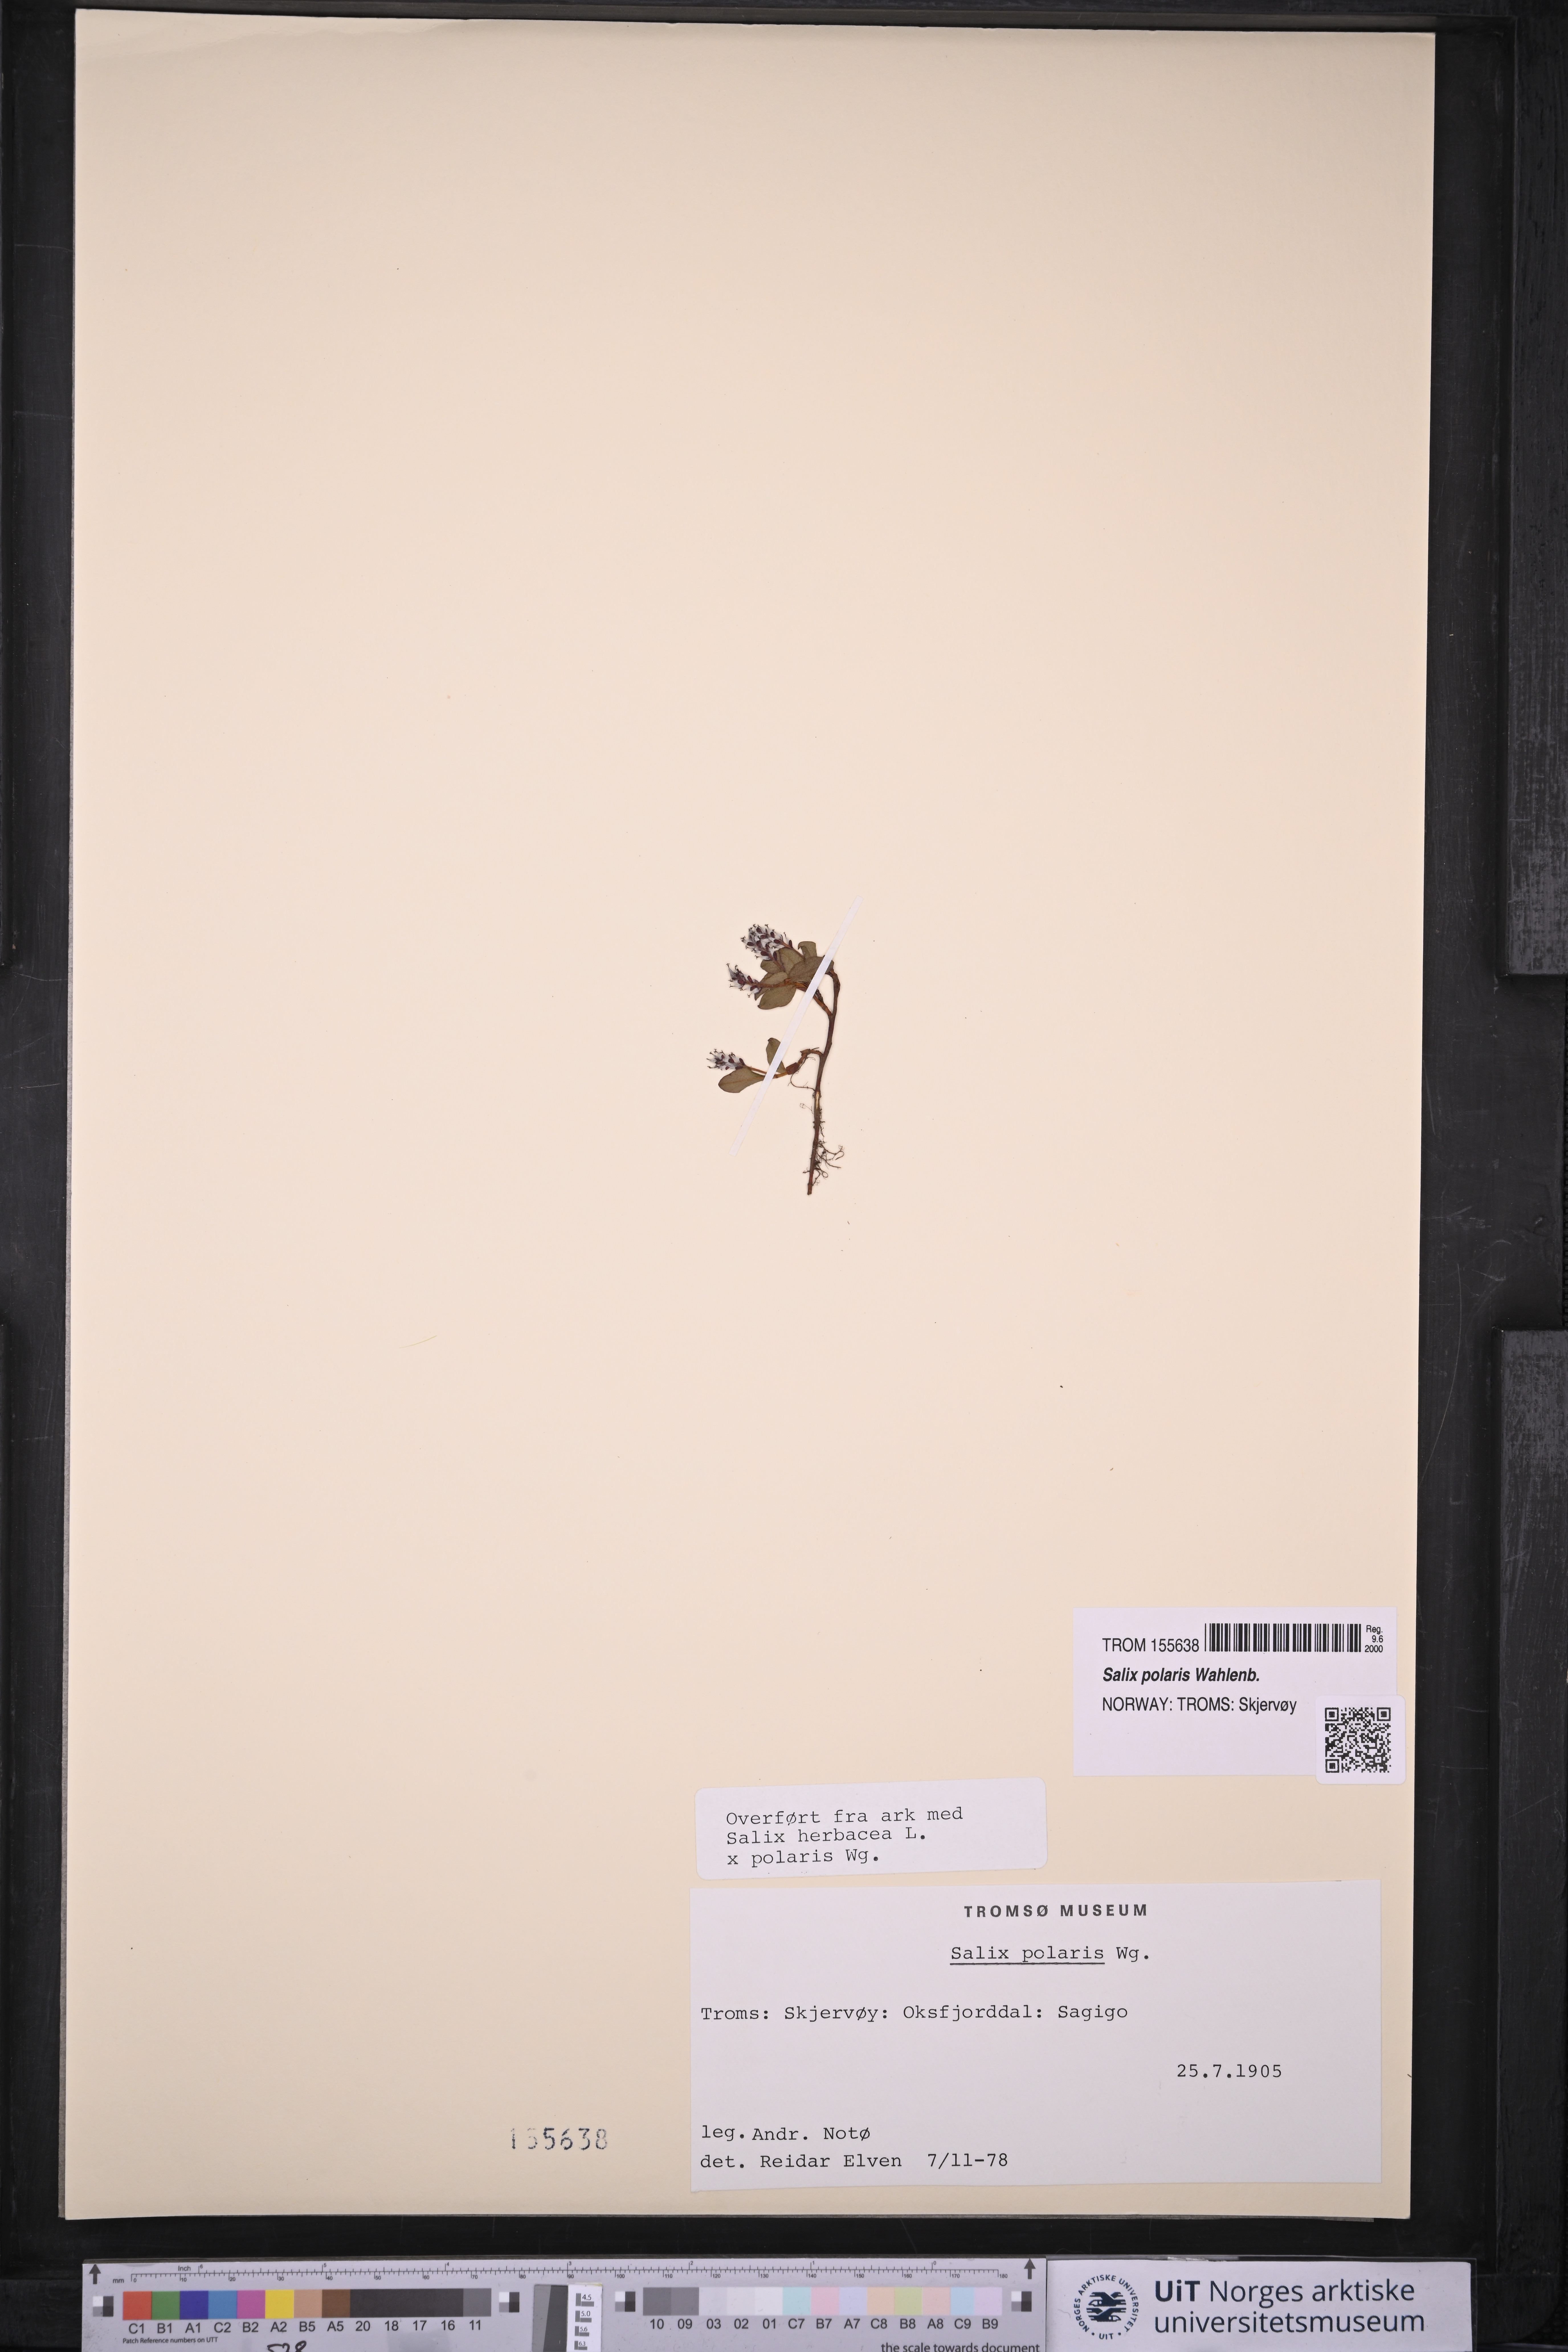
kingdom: Plantae
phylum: Tracheophyta
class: Magnoliopsida
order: Malpighiales
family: Salicaceae
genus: Salix
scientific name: Salix polaris
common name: Polar willow
